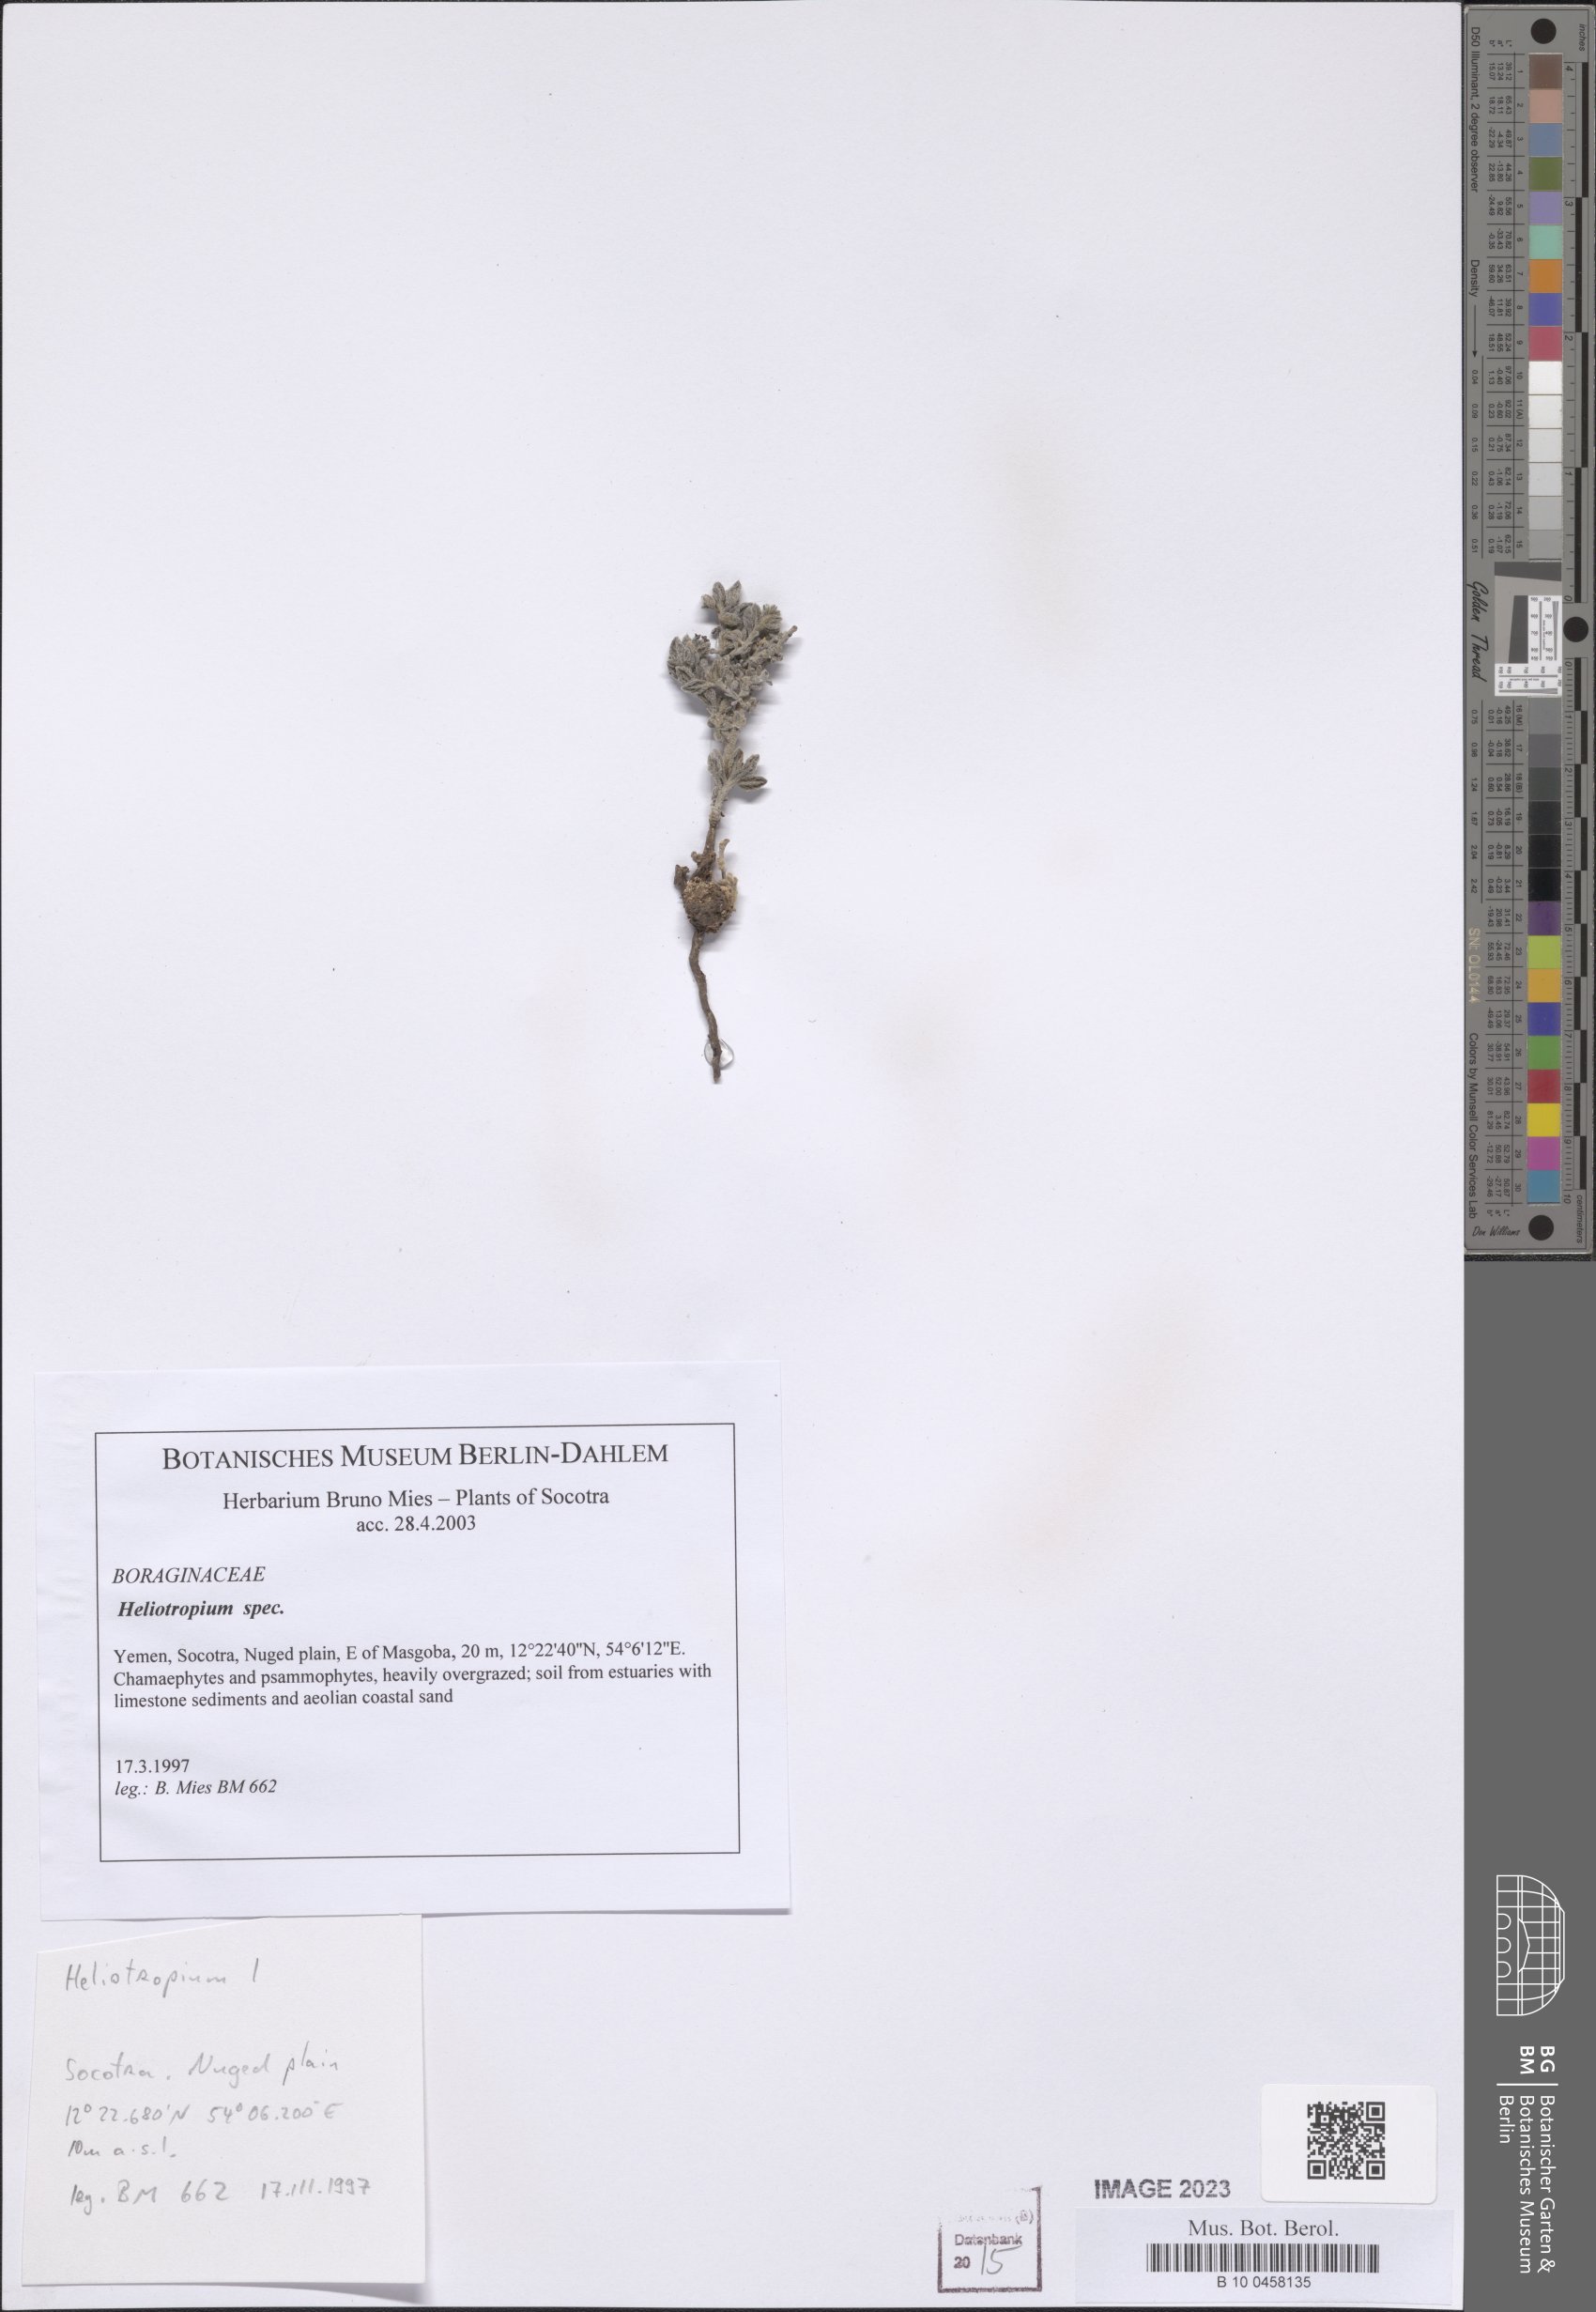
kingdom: Plantae
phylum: Tracheophyta
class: Magnoliopsida
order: Boraginales
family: Heliotropiaceae
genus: Heliotropium
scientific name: Heliotropium
